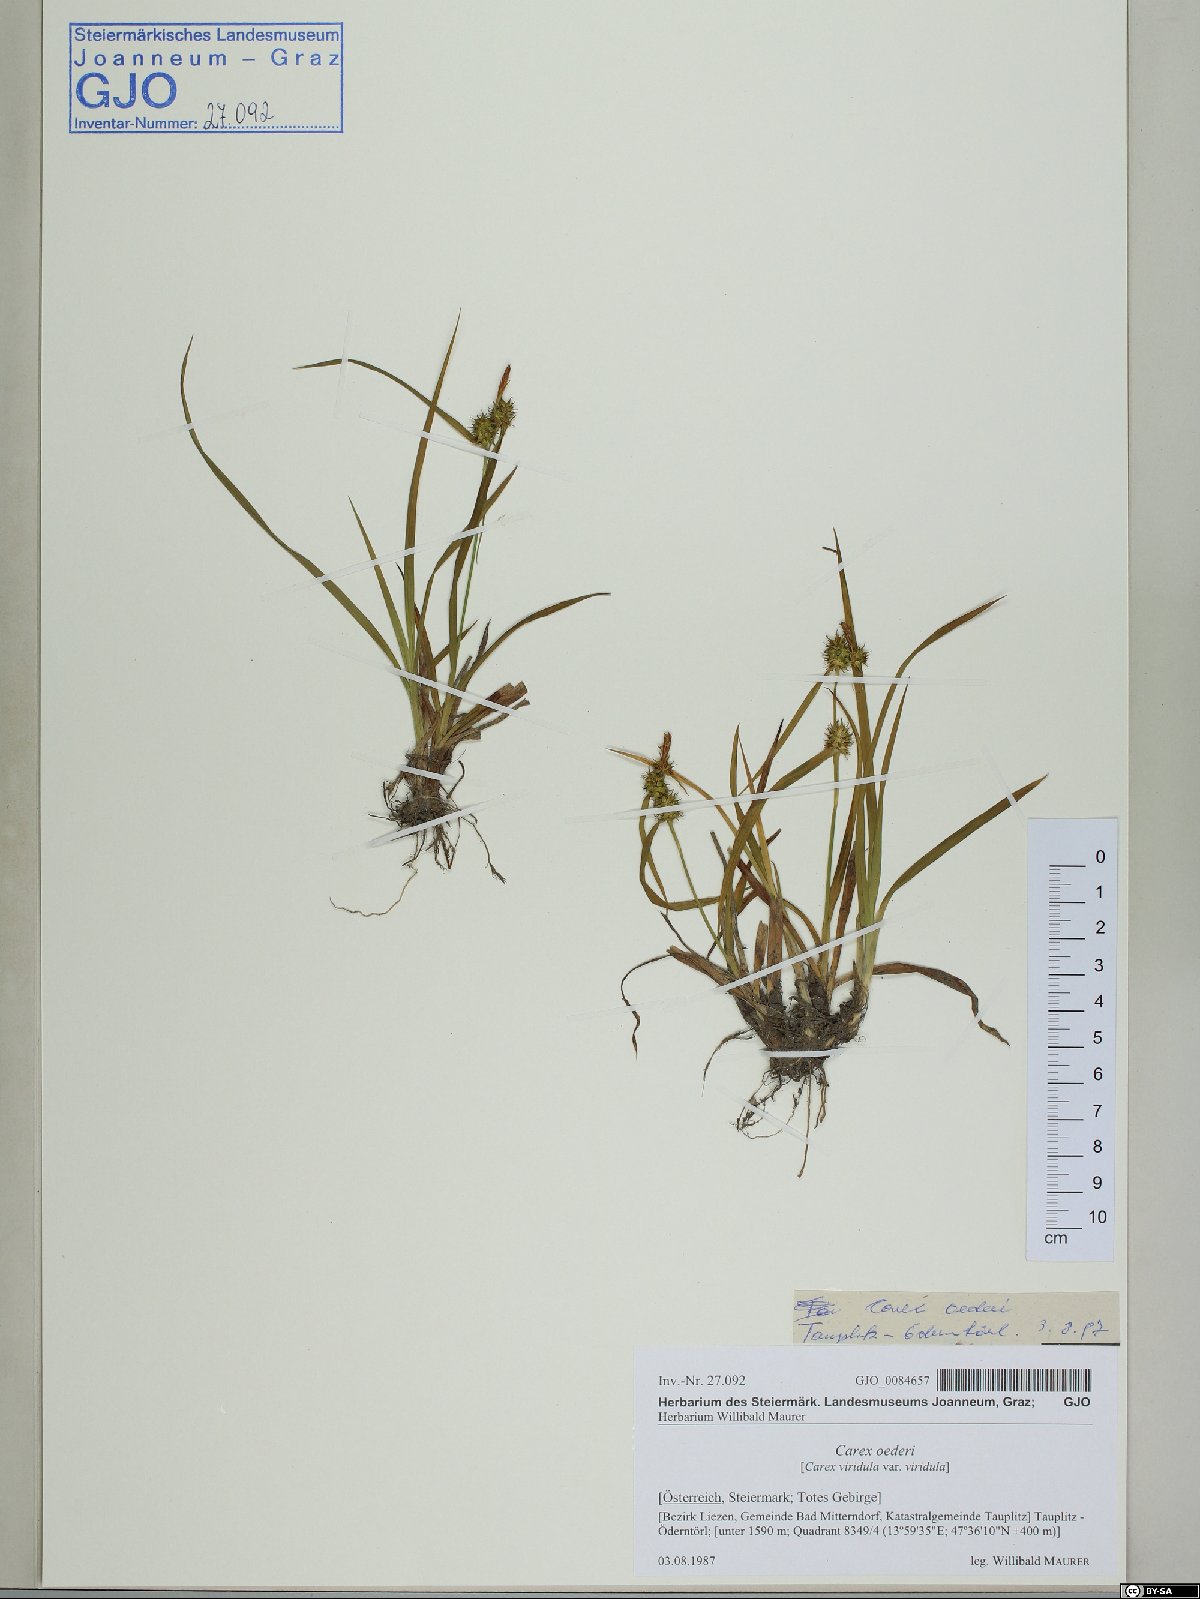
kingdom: Plantae
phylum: Tracheophyta
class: Liliopsida
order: Poales
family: Cyperaceae
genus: Carex
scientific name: Carex oederi
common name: Common & small-fruited yellow-sedge
